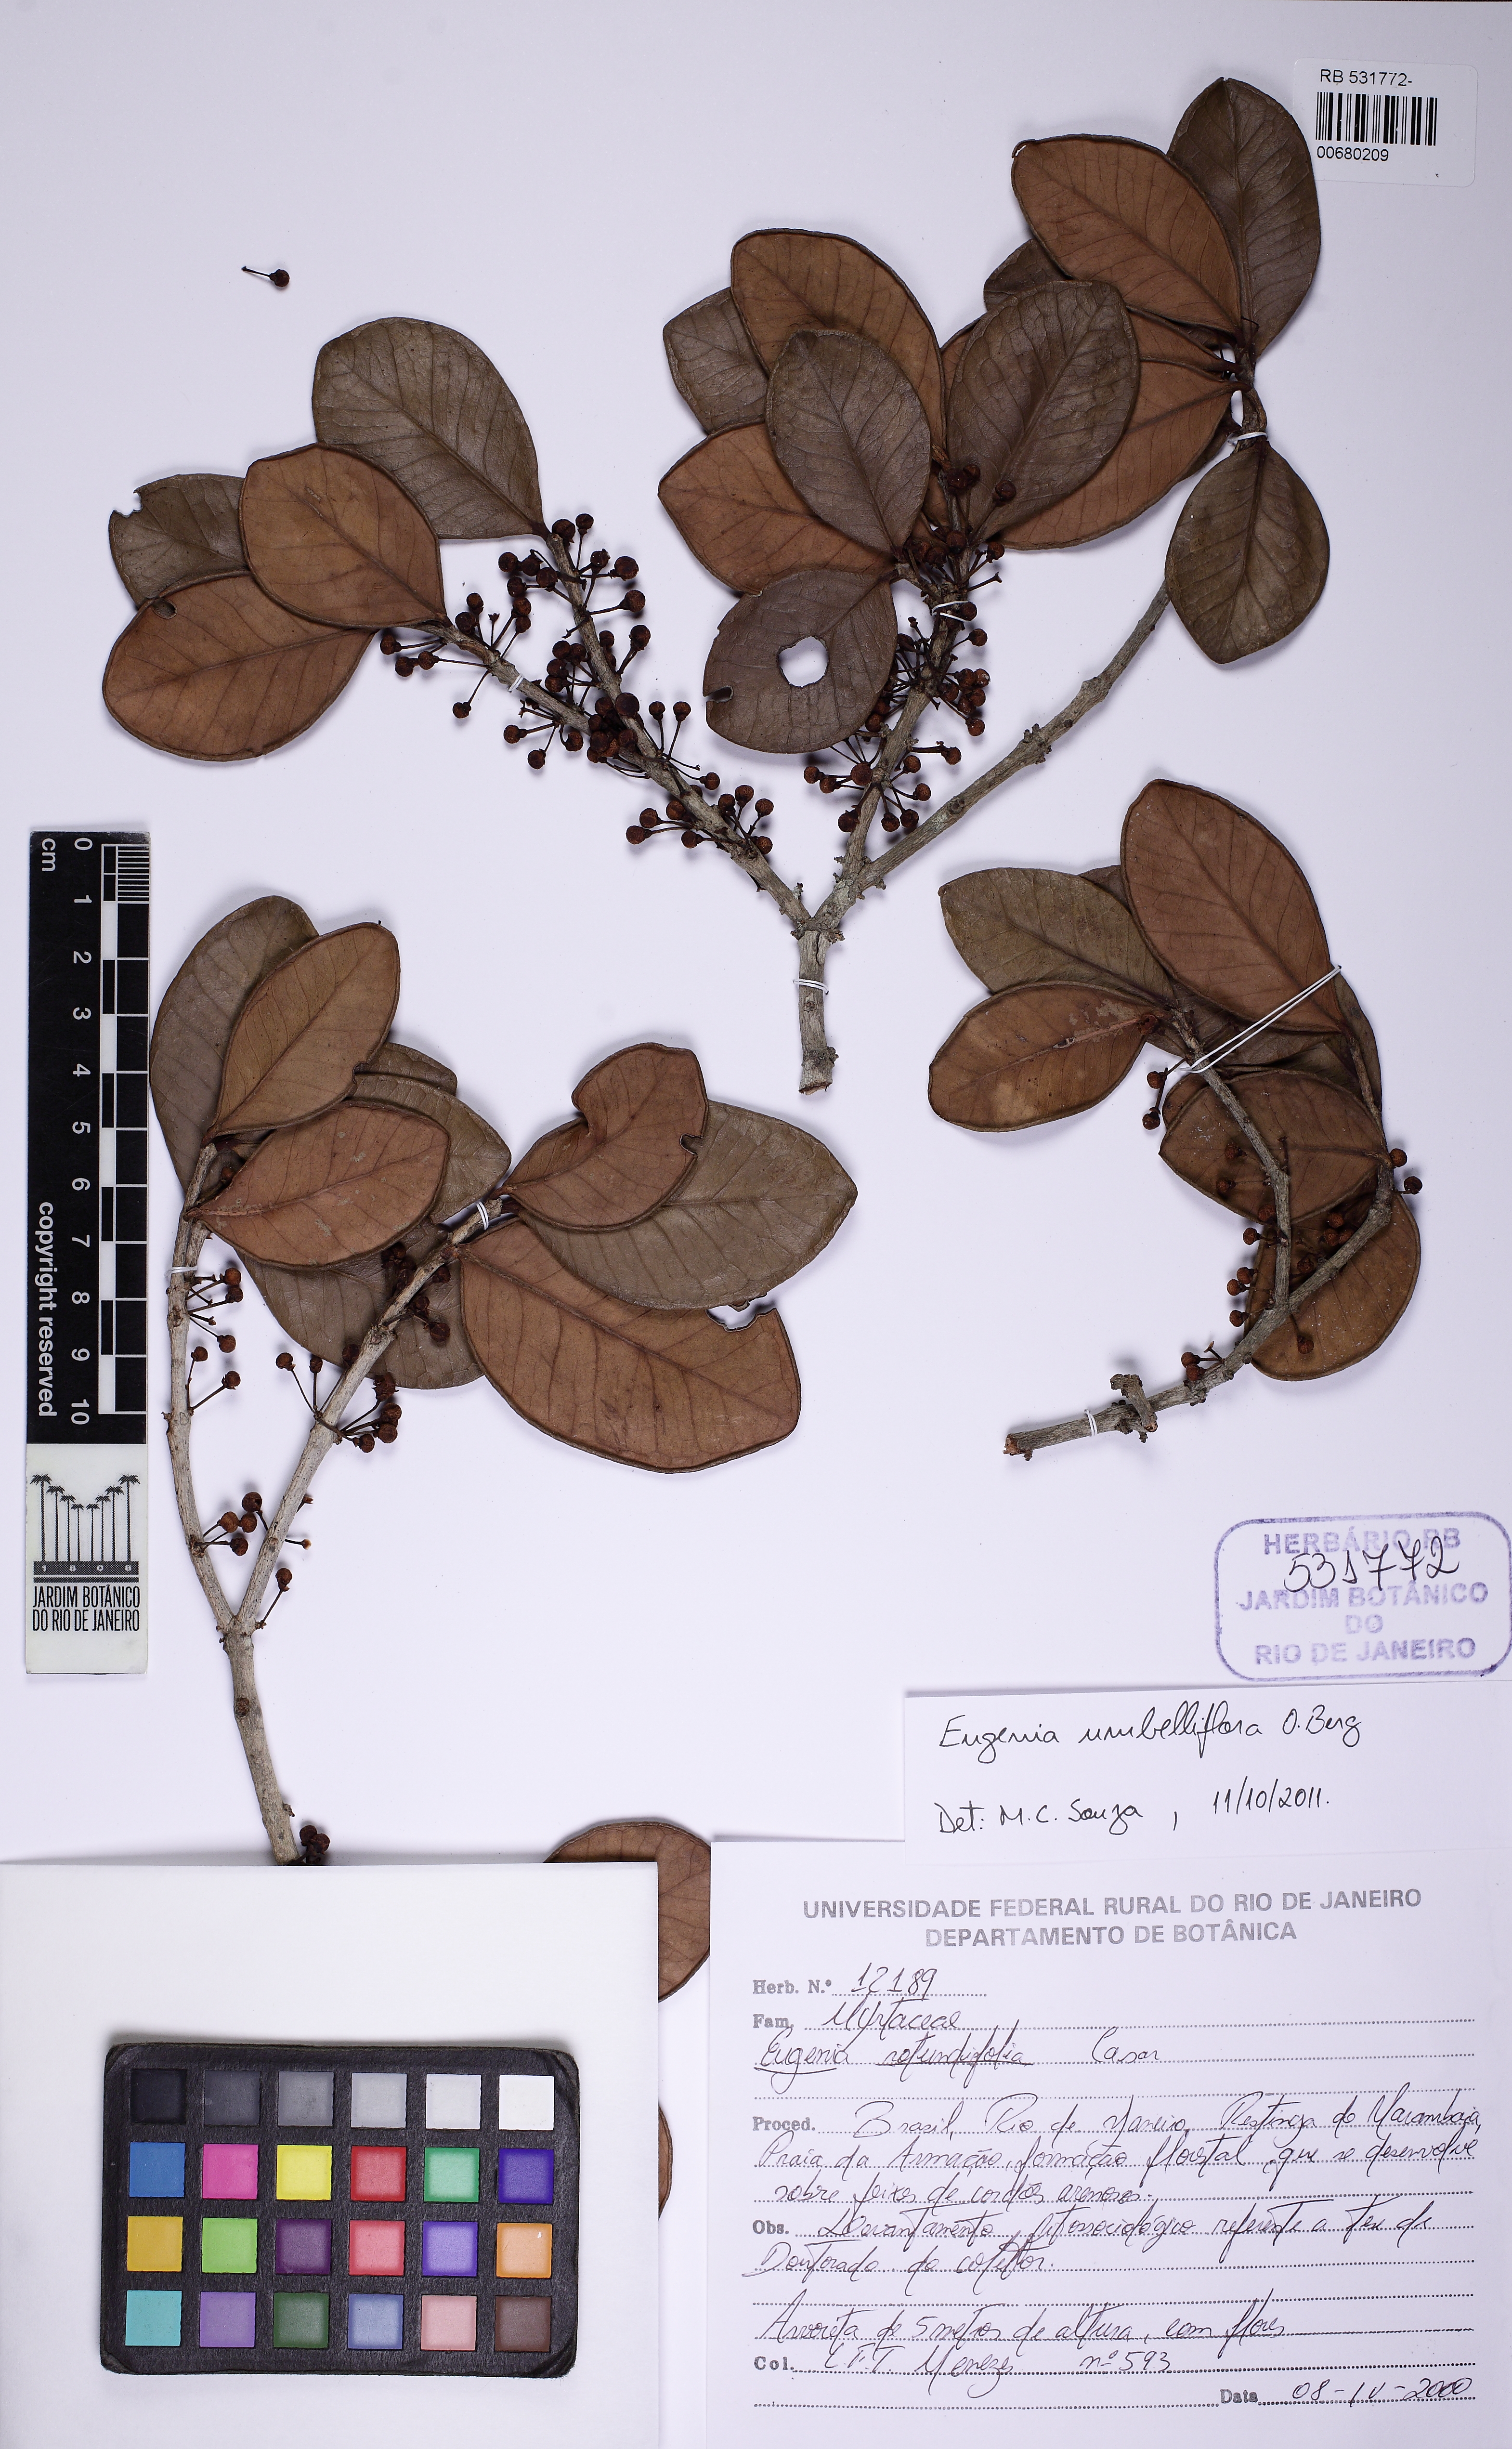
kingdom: Plantae
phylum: Tracheophyta
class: Magnoliopsida
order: Myrtales
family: Myrtaceae
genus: Eugenia
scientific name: Eugenia umbelliflora
